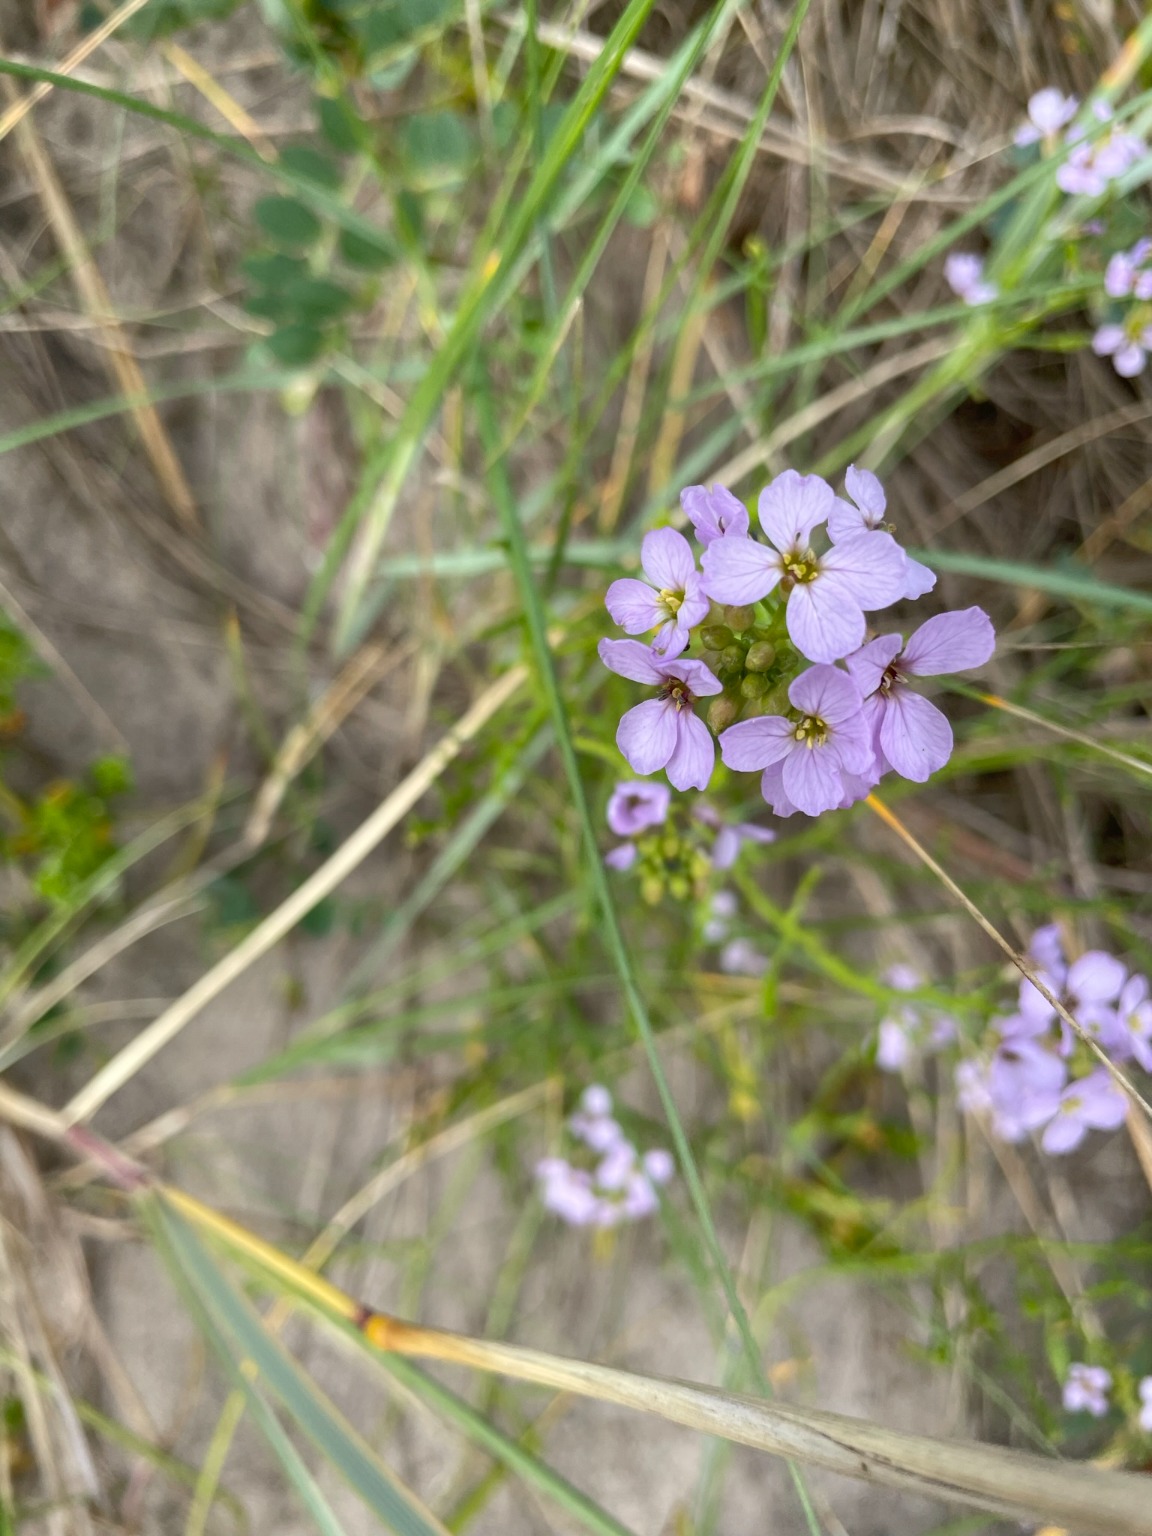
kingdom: Plantae
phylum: Tracheophyta
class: Magnoliopsida
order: Brassicales
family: Brassicaceae
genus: Cakile
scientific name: Cakile maritima
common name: Strandsennep
